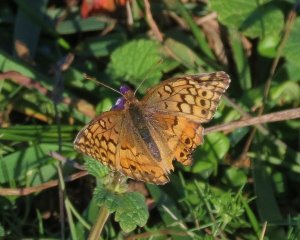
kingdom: Animalia
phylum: Arthropoda
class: Insecta
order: Lepidoptera
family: Nymphalidae
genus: Euptoieta
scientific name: Euptoieta claudia
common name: Variegated Fritillary
